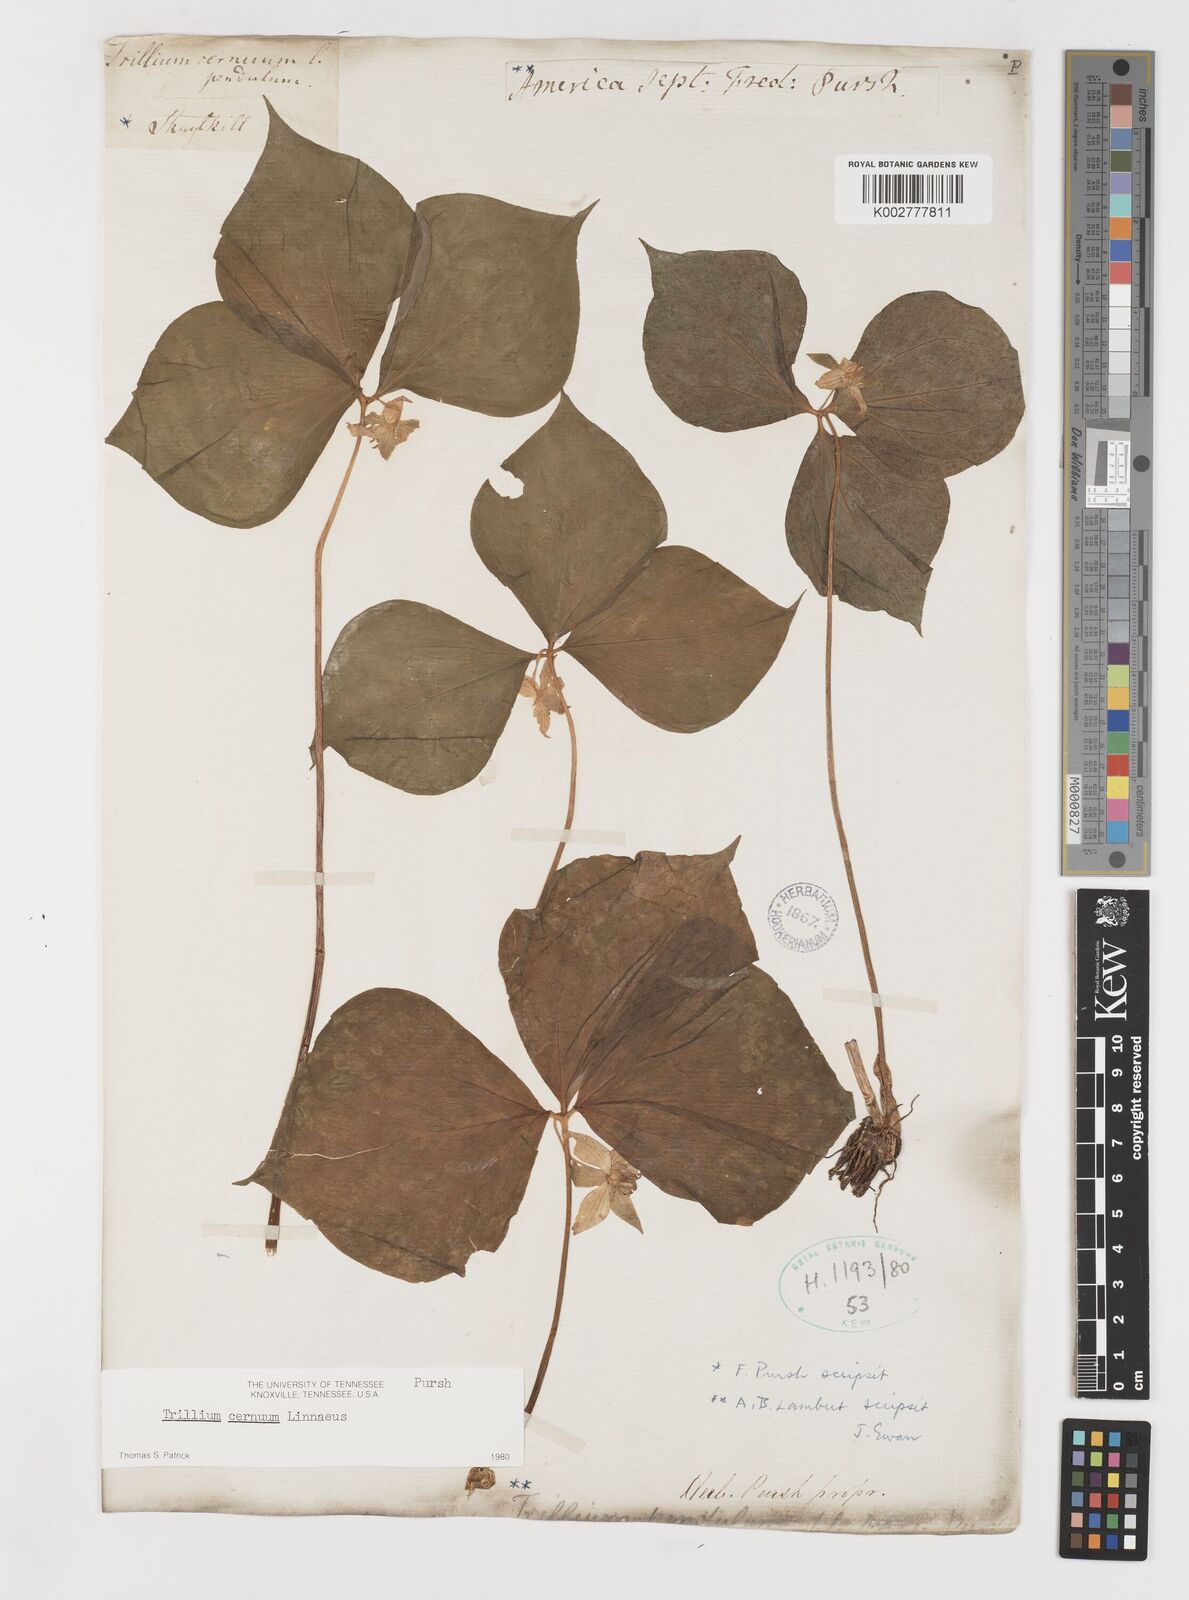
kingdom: Plantae
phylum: Tracheophyta
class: Liliopsida
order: Liliales
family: Melanthiaceae
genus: Trillium
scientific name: Trillium cernuum
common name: Nodding trillium
